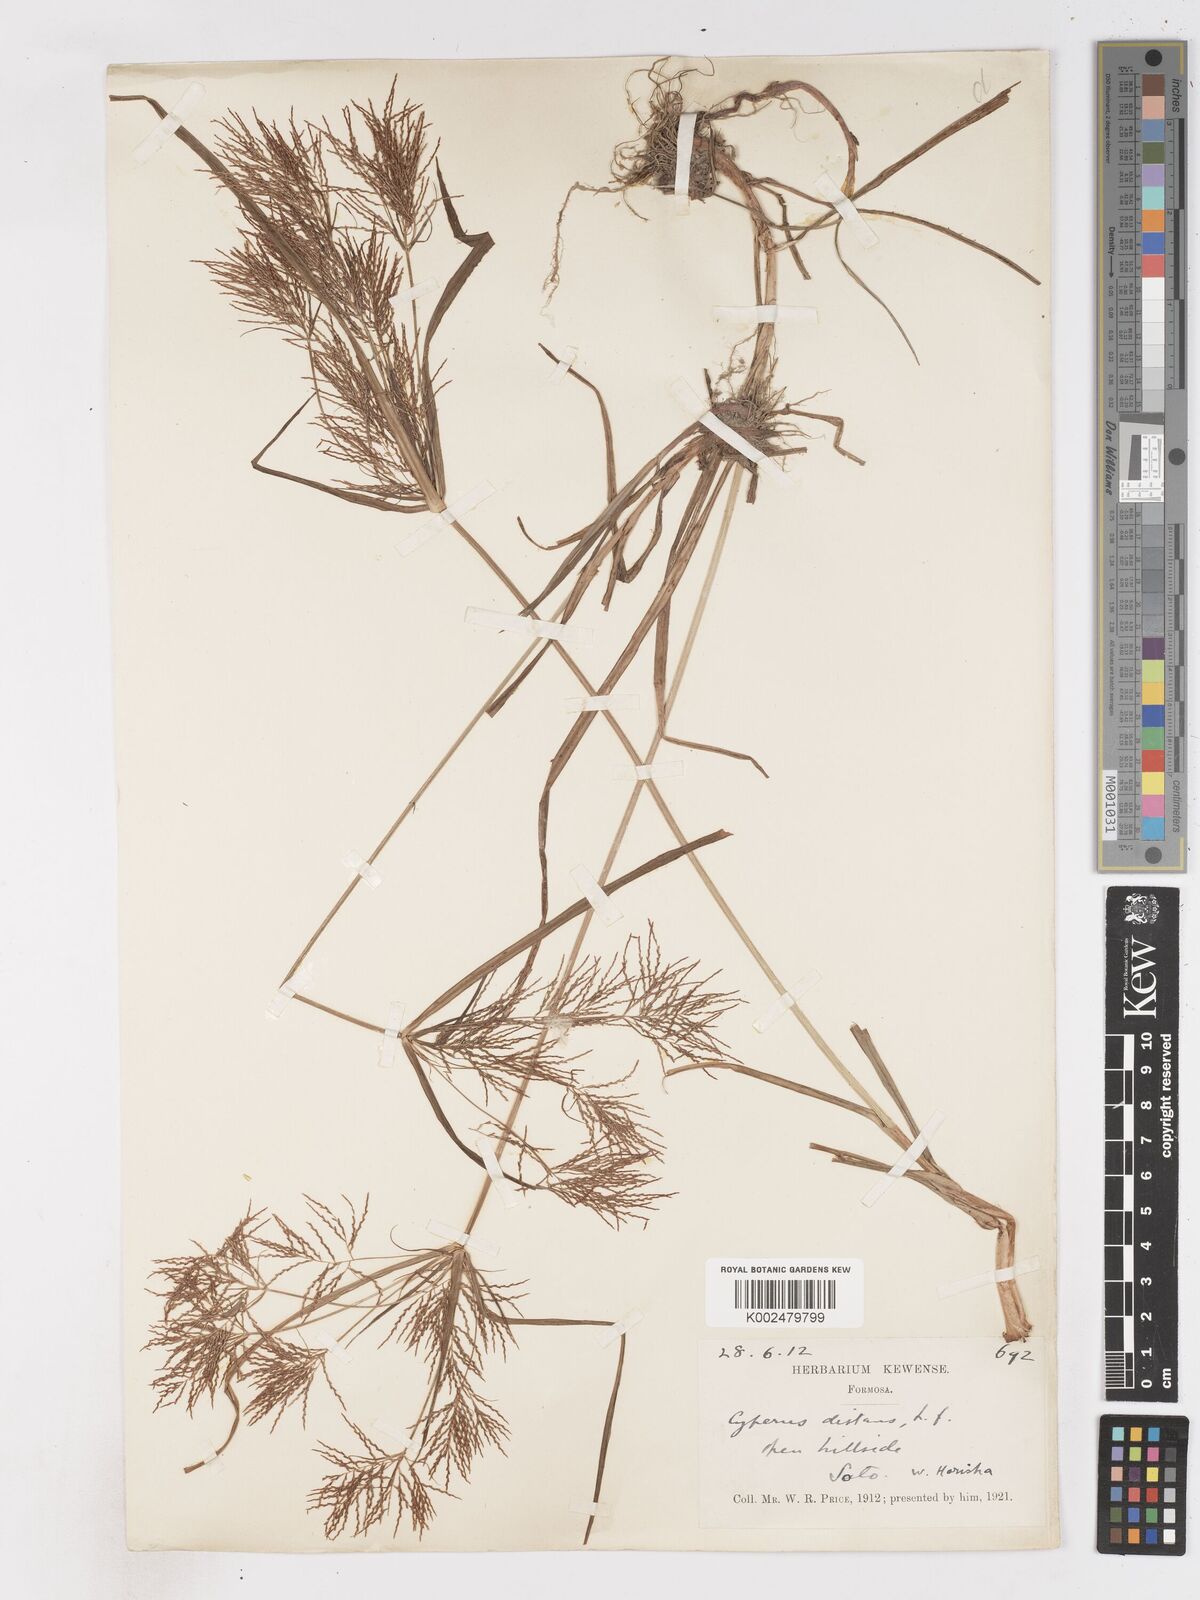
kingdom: Plantae
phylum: Tracheophyta
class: Liliopsida
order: Poales
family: Cyperaceae
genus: Cyperus
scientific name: Cyperus distans
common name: Slender cyperus
